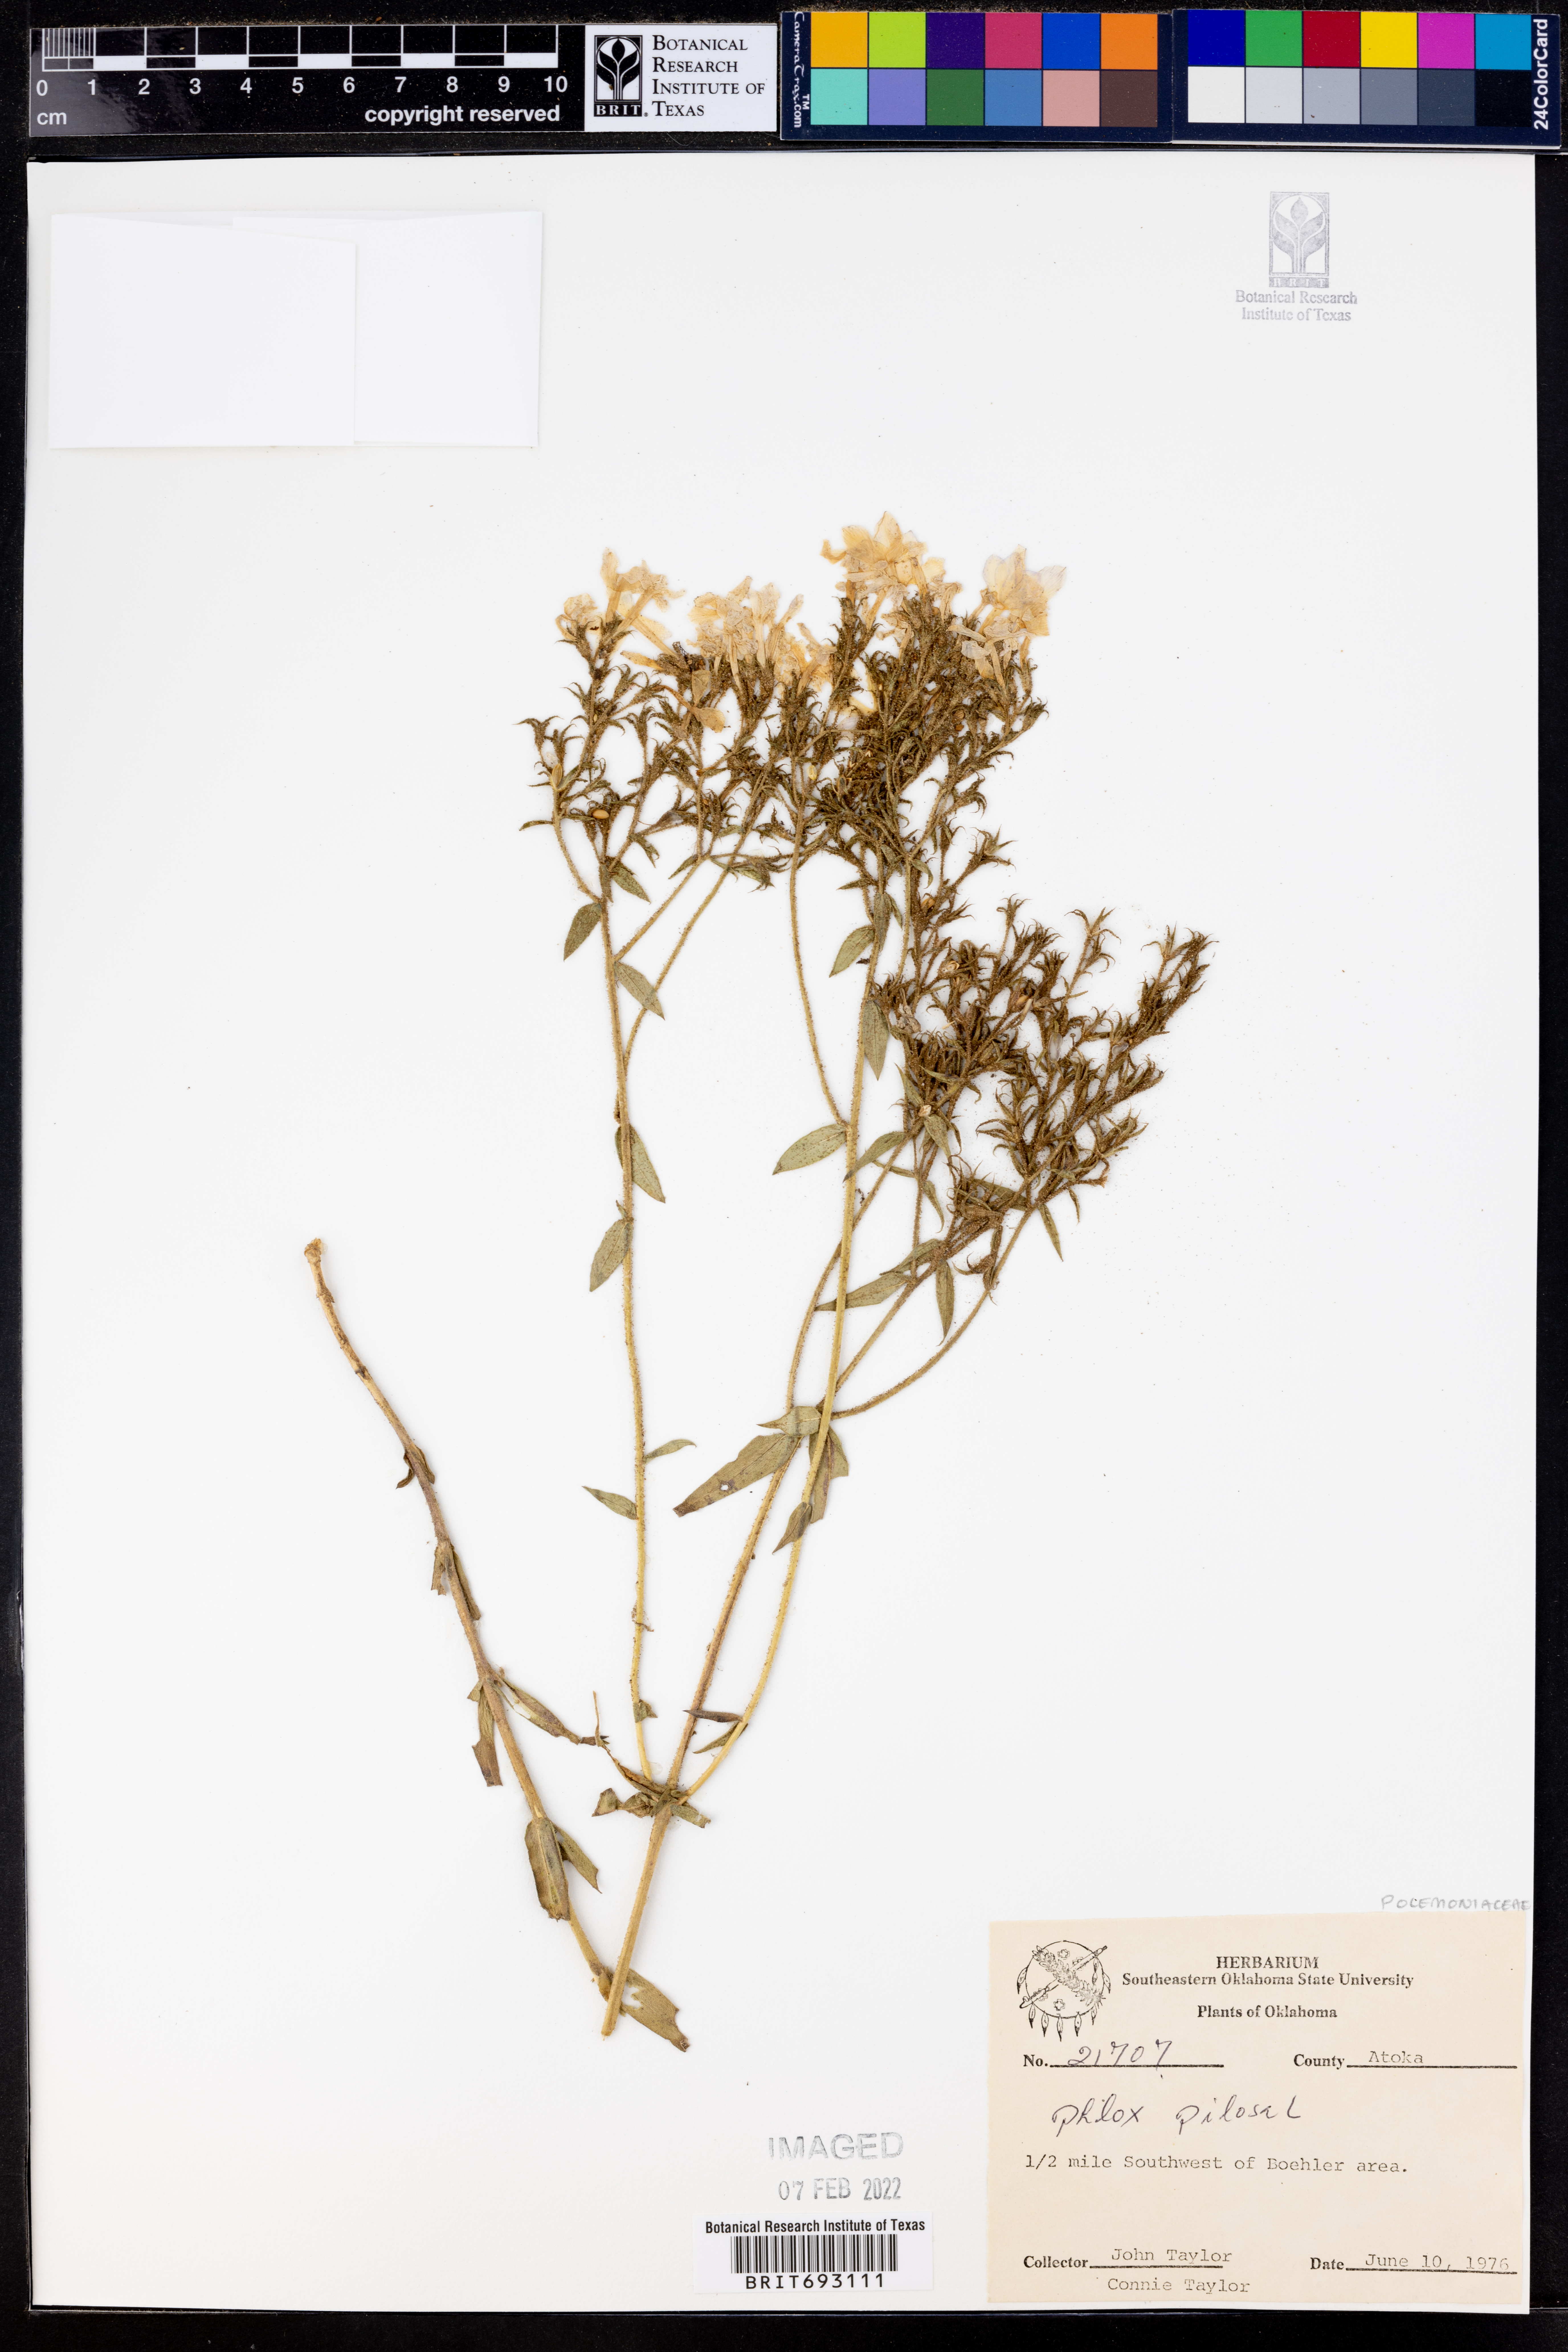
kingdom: Plantae
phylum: Tracheophyta
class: Magnoliopsida
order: Ericales
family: Polemoniaceae
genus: Phlox
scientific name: Phlox pilosa
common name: Prairie phlox
